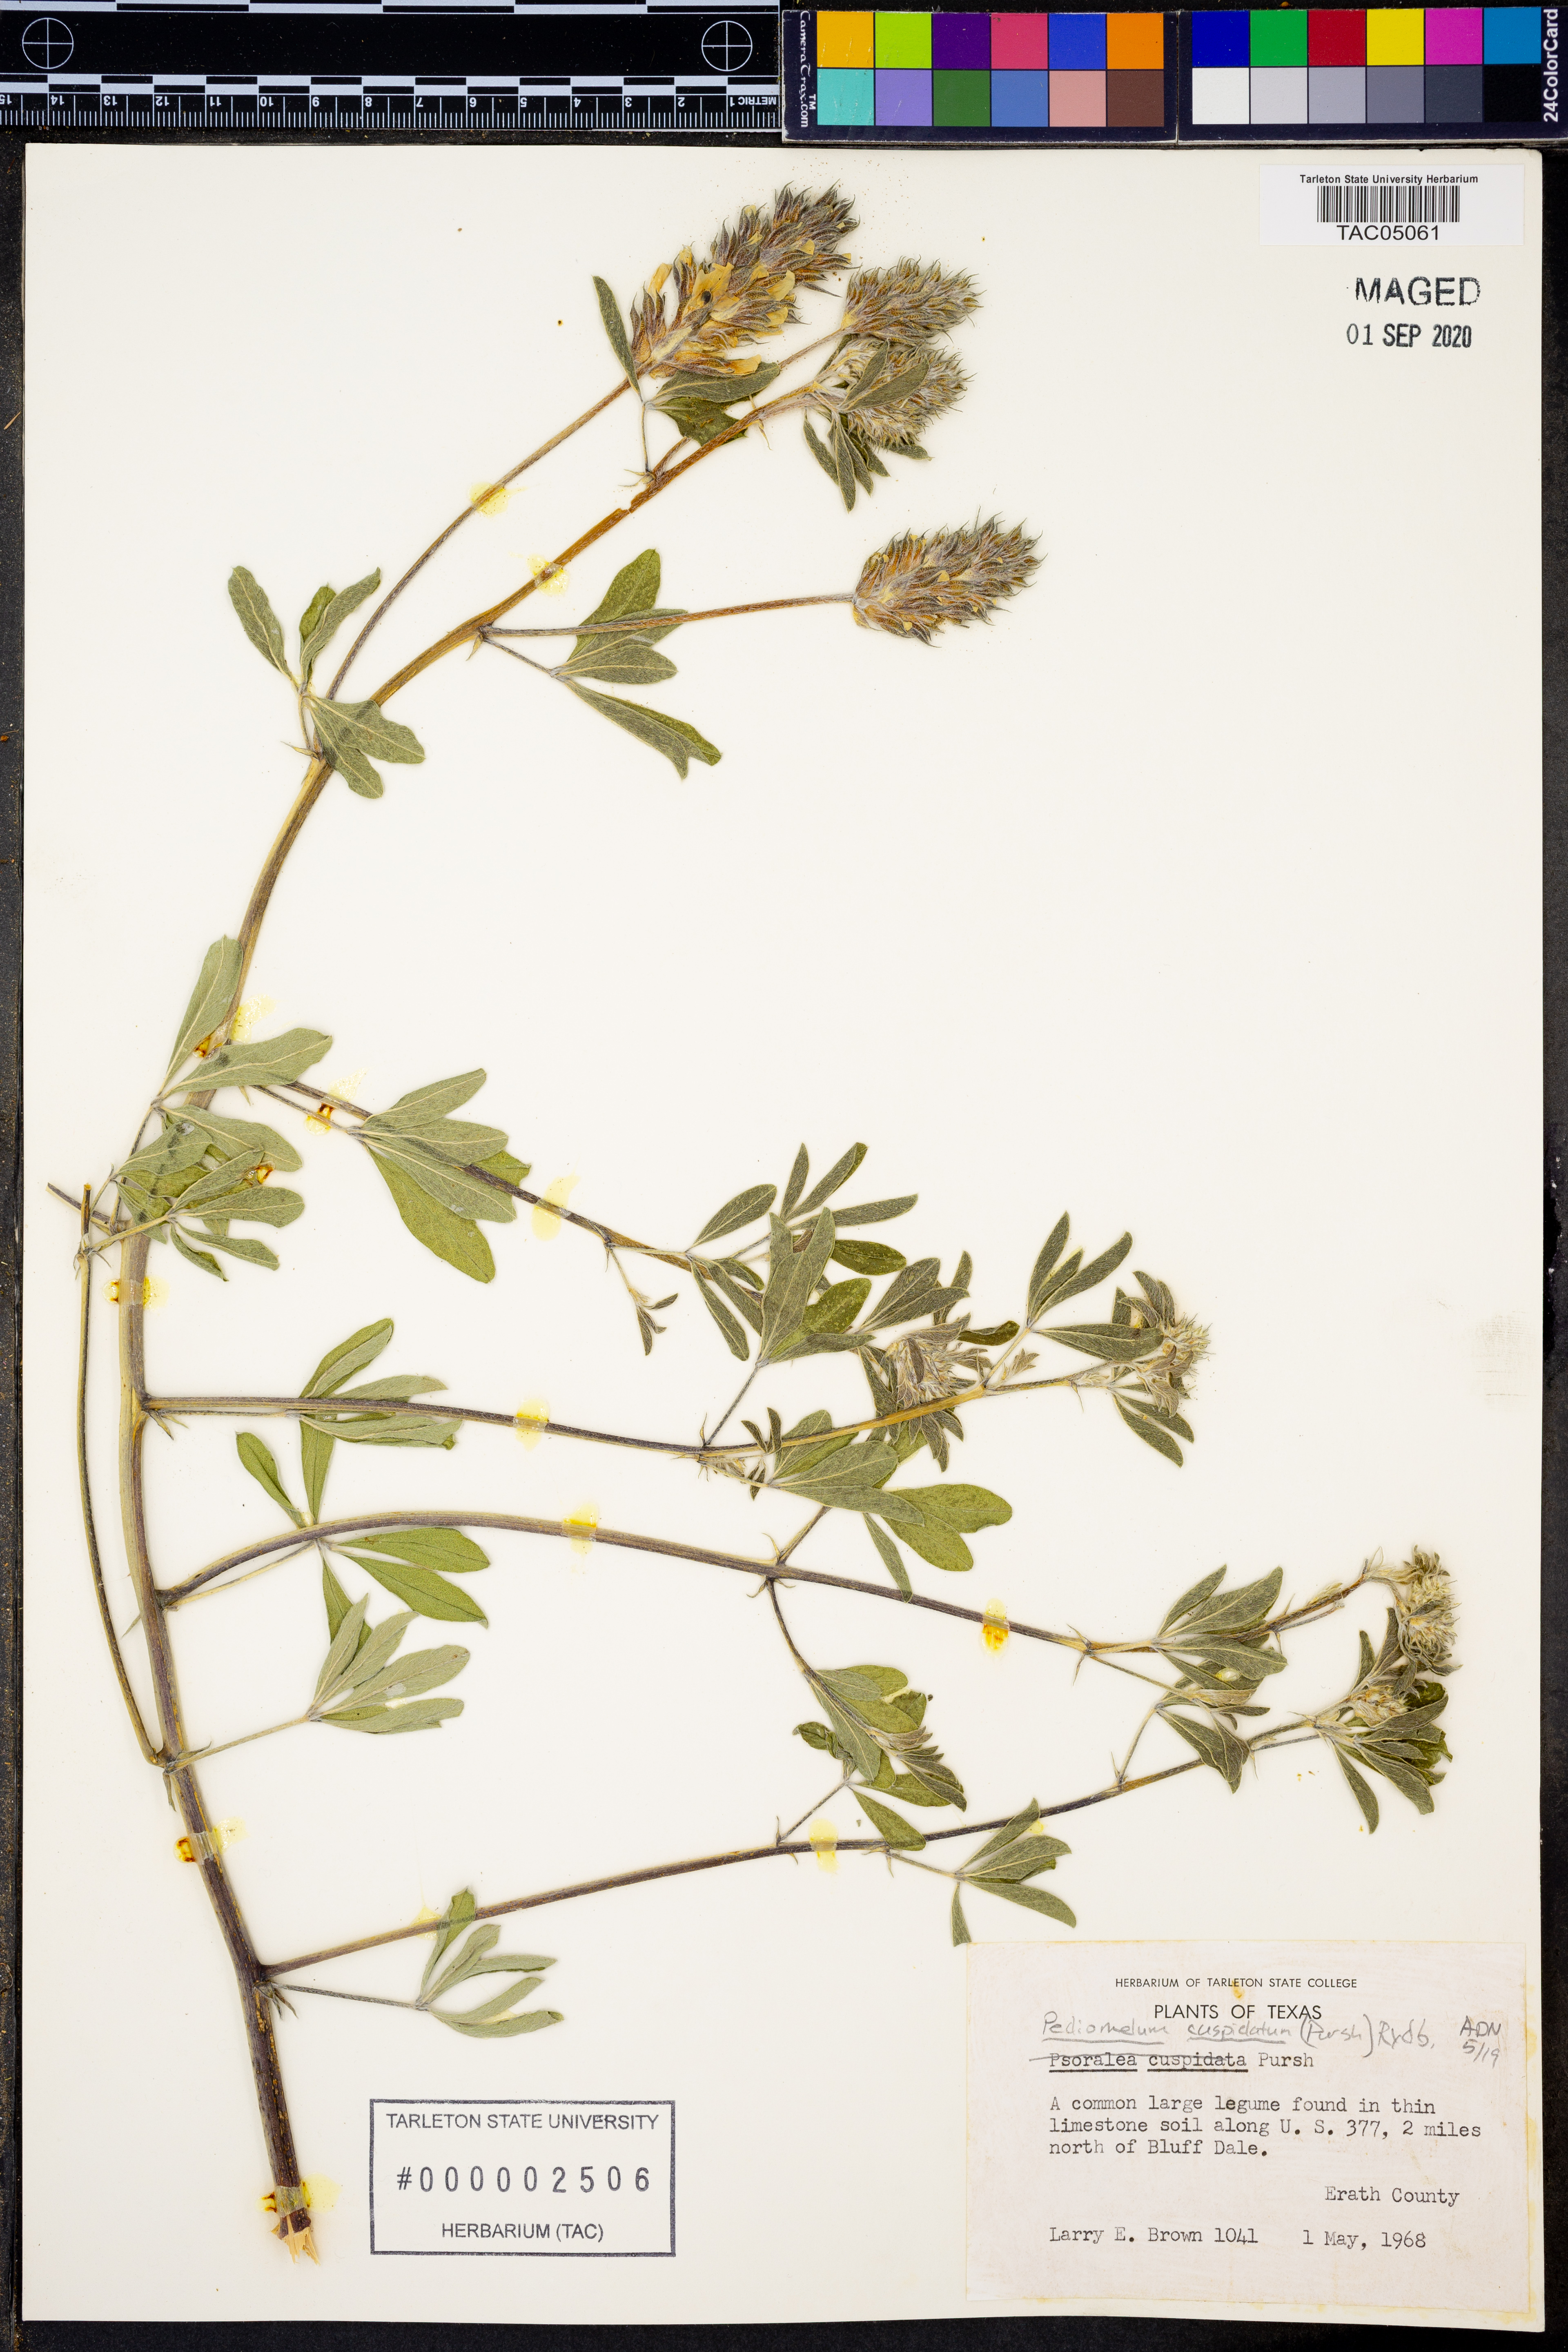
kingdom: Plantae
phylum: Tracheophyta
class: Magnoliopsida
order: Fabales
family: Fabaceae
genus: Pediomelum
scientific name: Pediomelum cuspidatum
